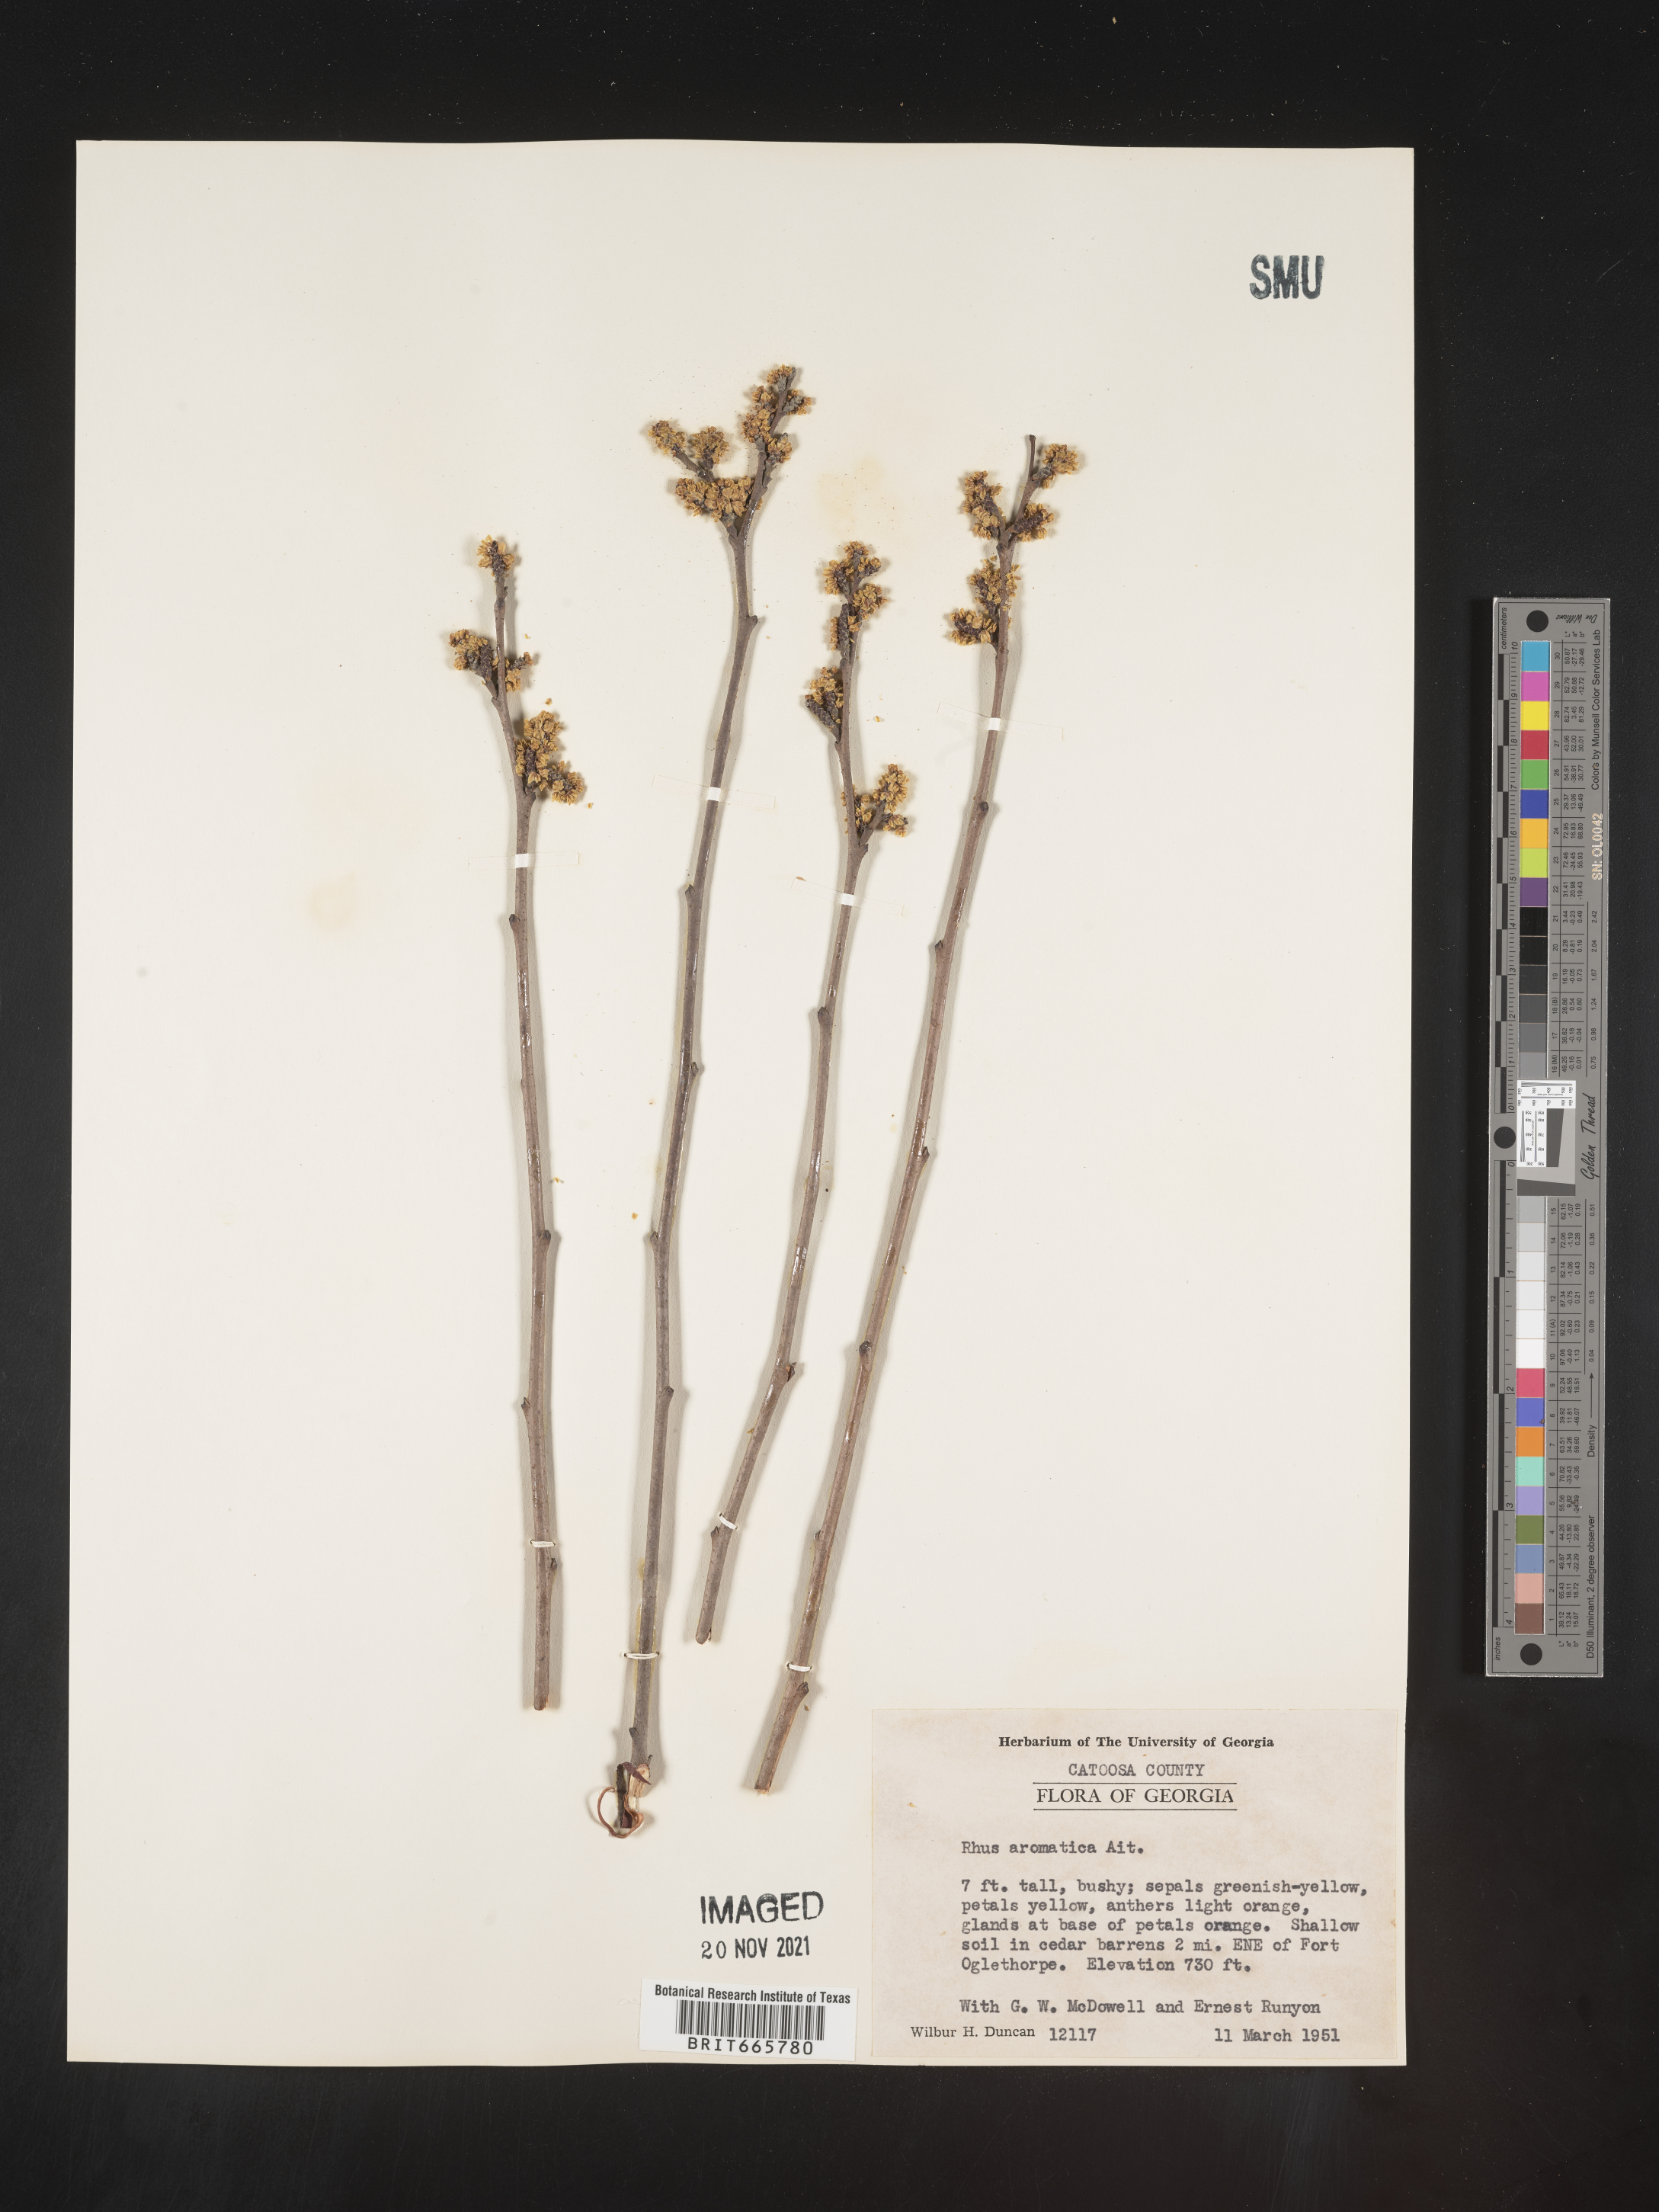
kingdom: Plantae
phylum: Tracheophyta
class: Magnoliopsida
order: Sapindales
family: Anacardiaceae
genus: Rhus
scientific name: Rhus aromatica
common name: Aromatic sumac
